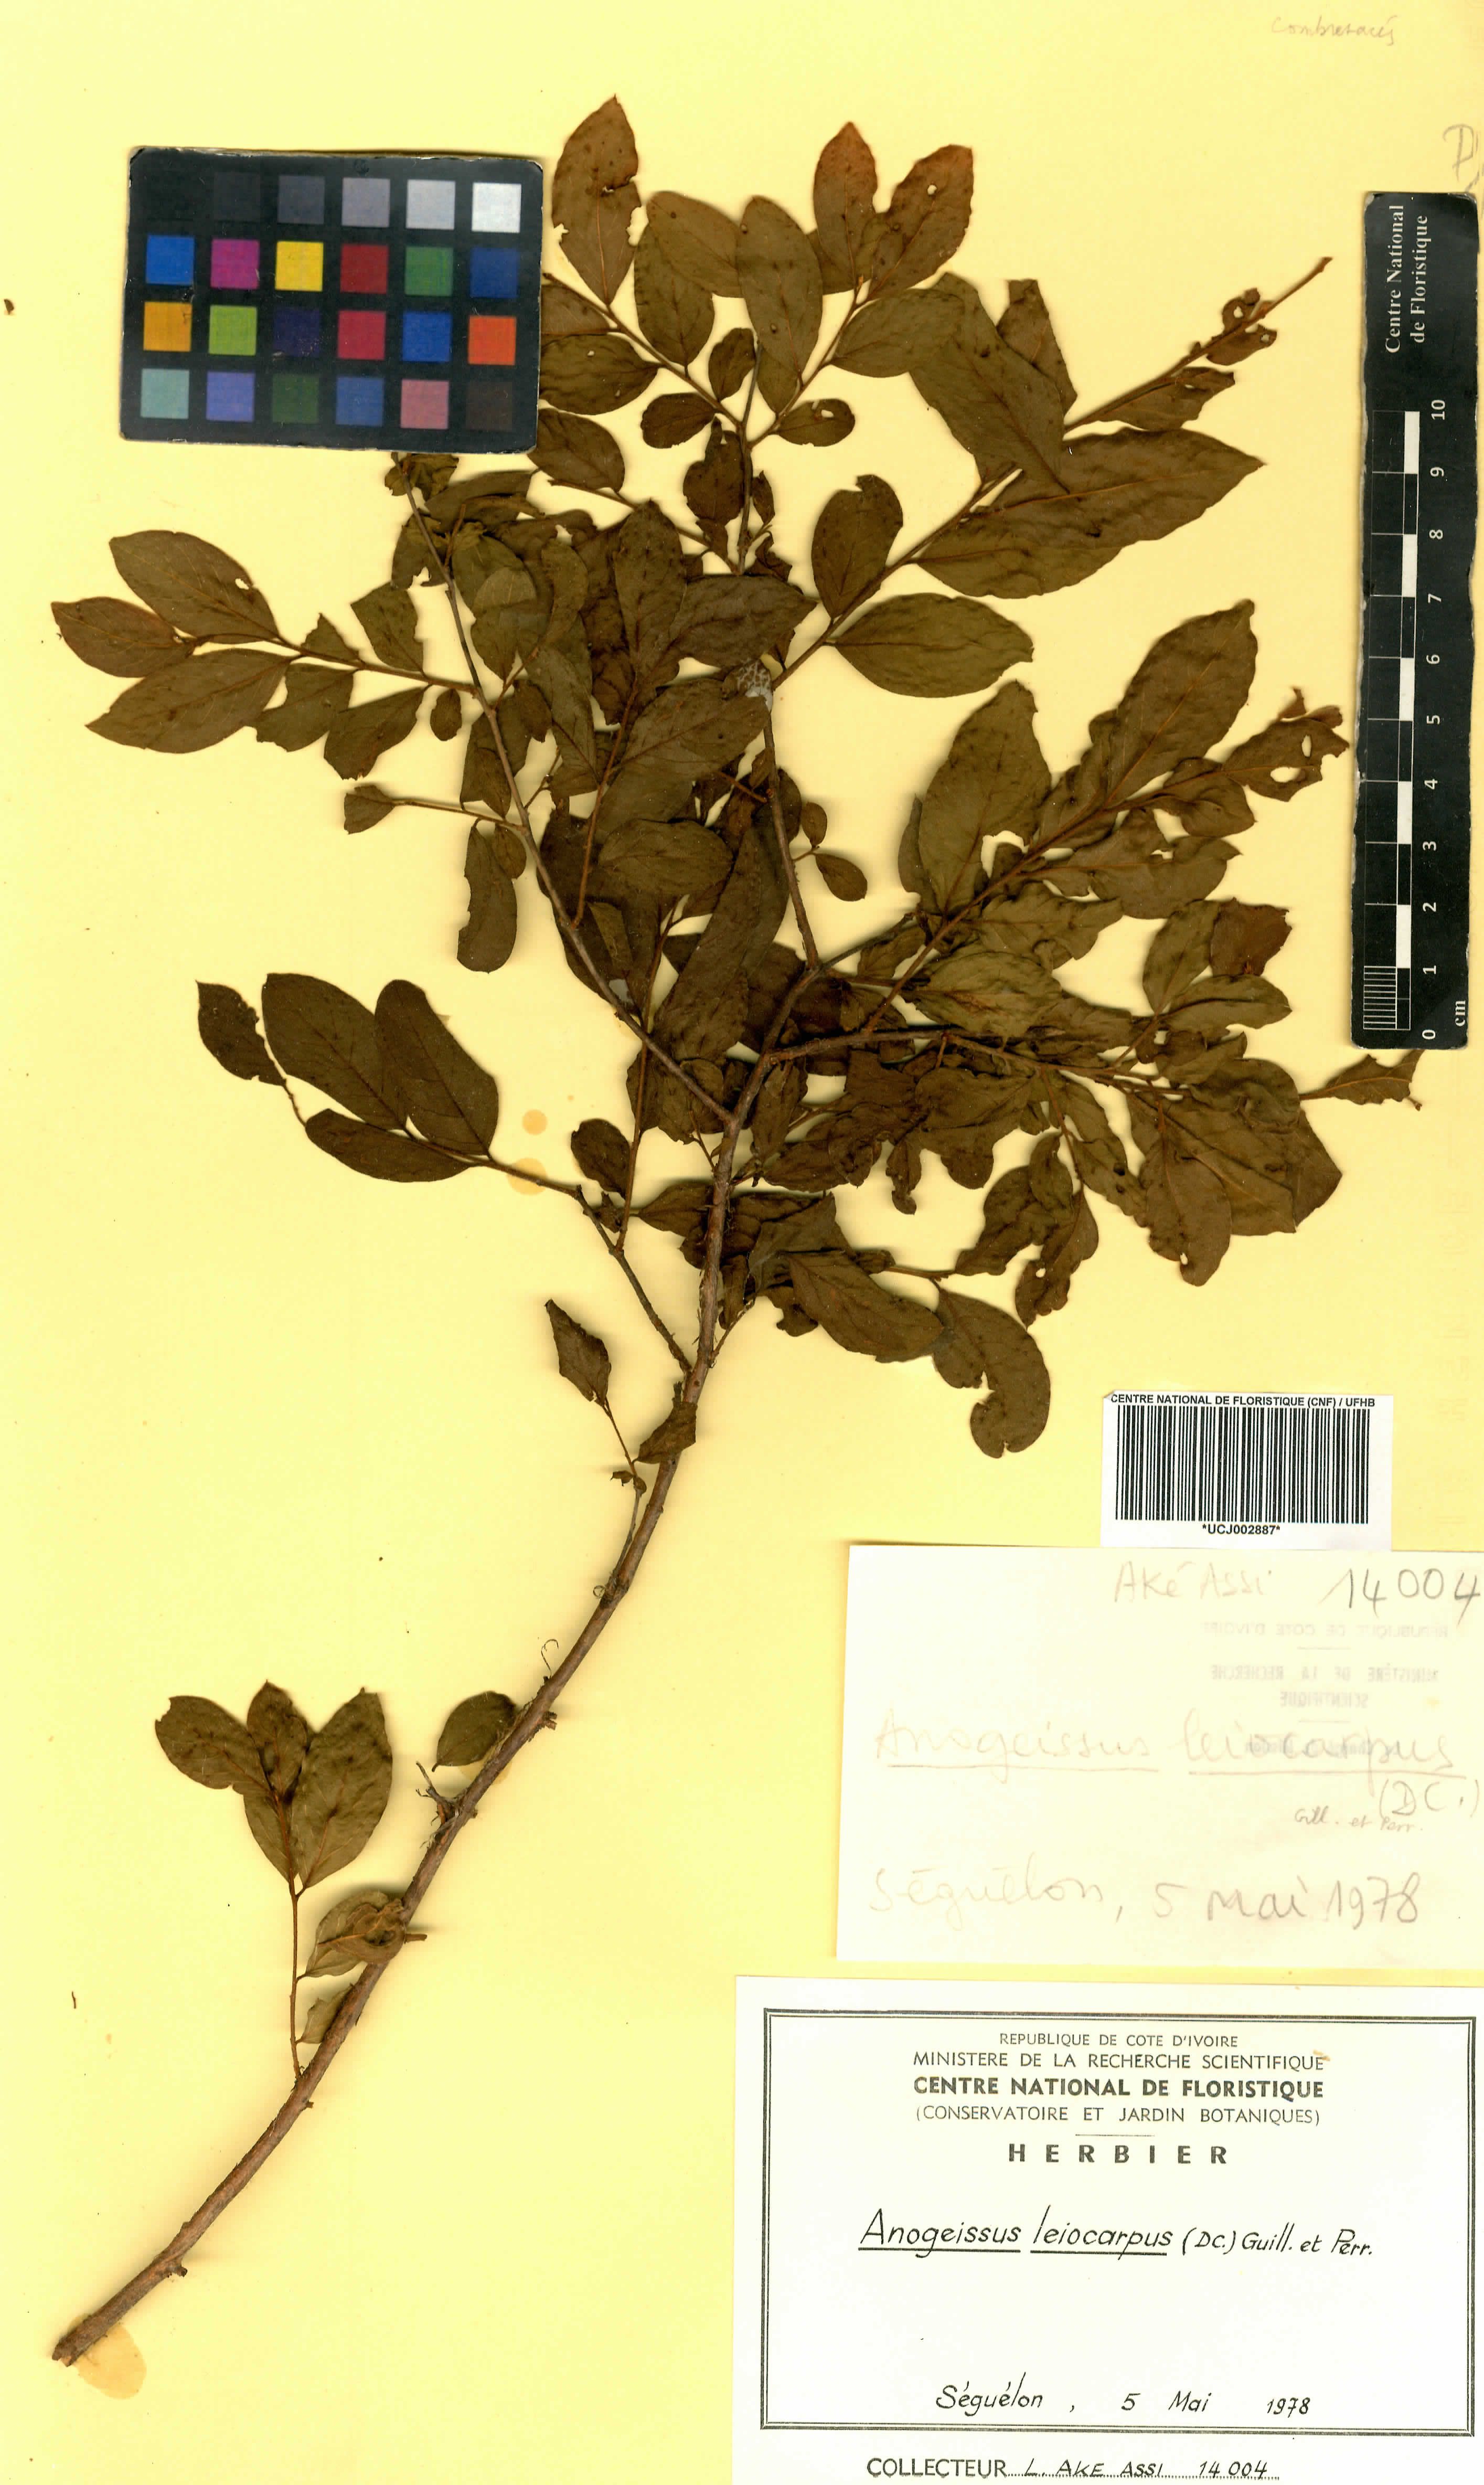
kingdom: Plantae
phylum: Tracheophyta
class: Magnoliopsida
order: Myrtales
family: Combretaceae
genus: Terminalia
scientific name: Terminalia leiocarpa
